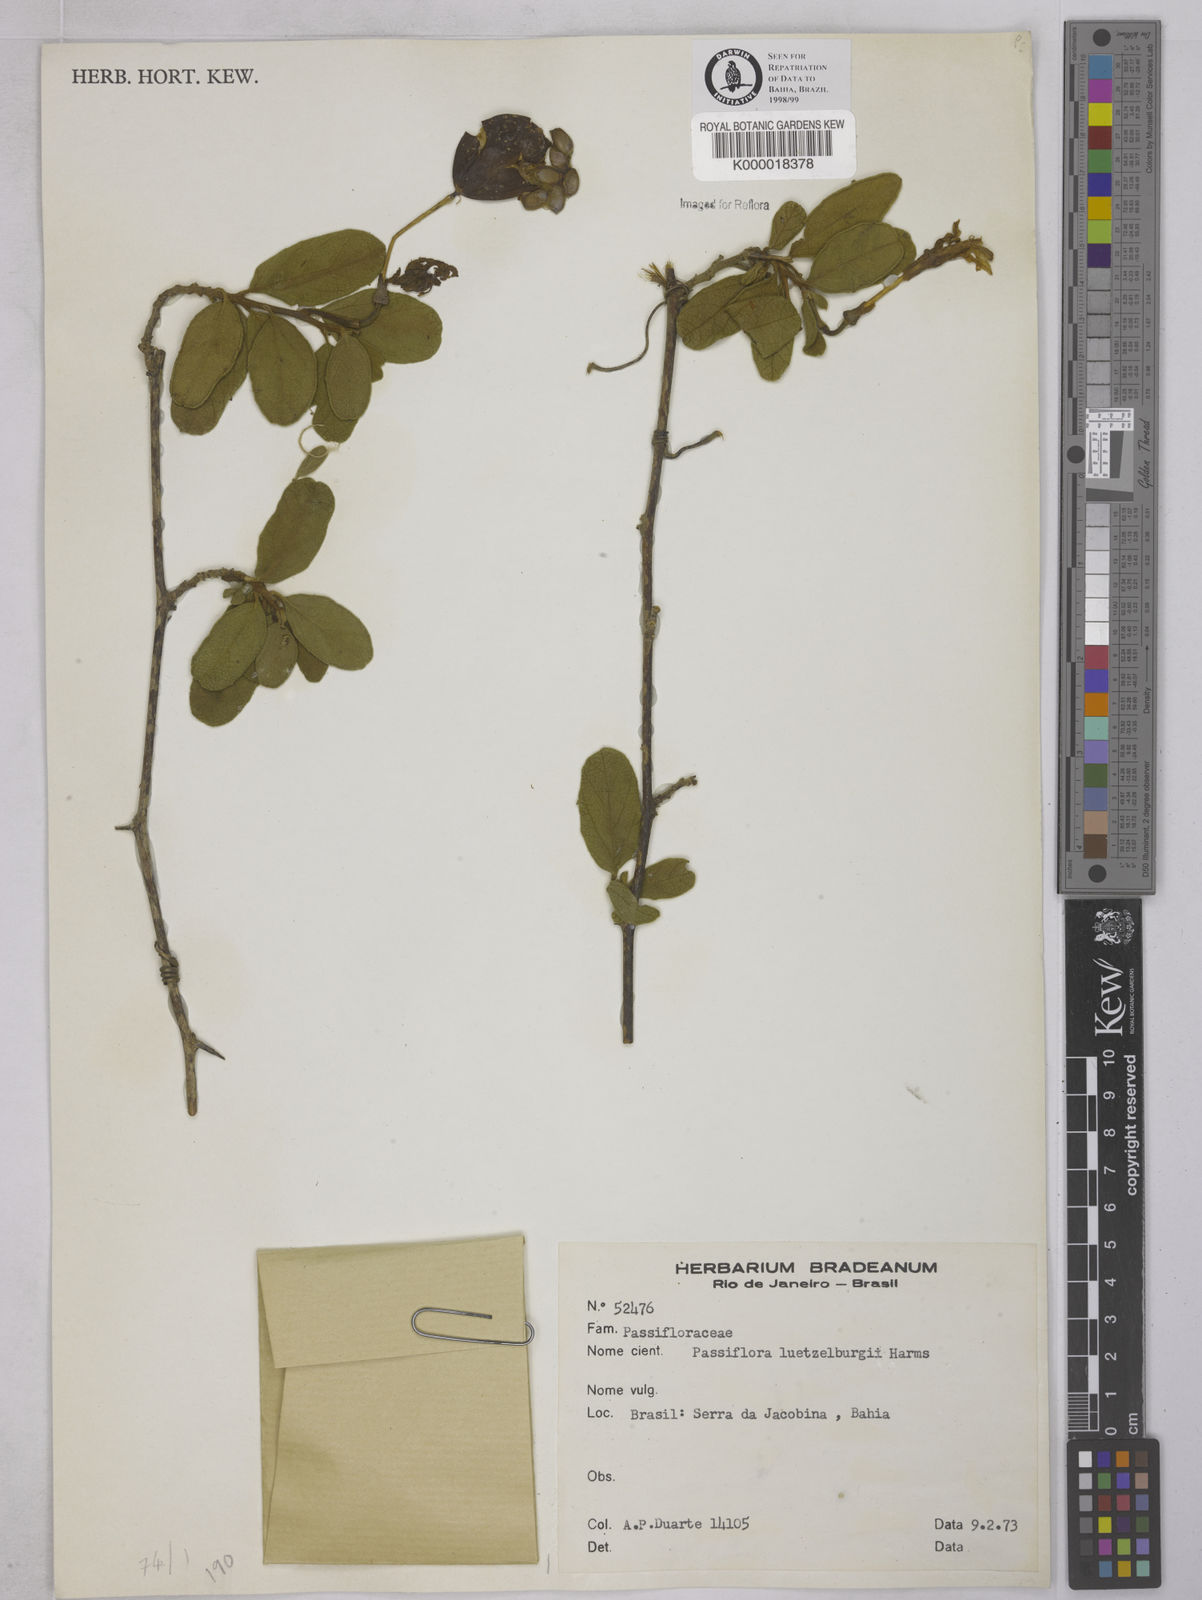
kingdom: Plantae
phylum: Tracheophyta
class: Magnoliopsida
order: Malpighiales
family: Passifloraceae
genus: Passiflora
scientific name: Passiflora luetzelburgii
